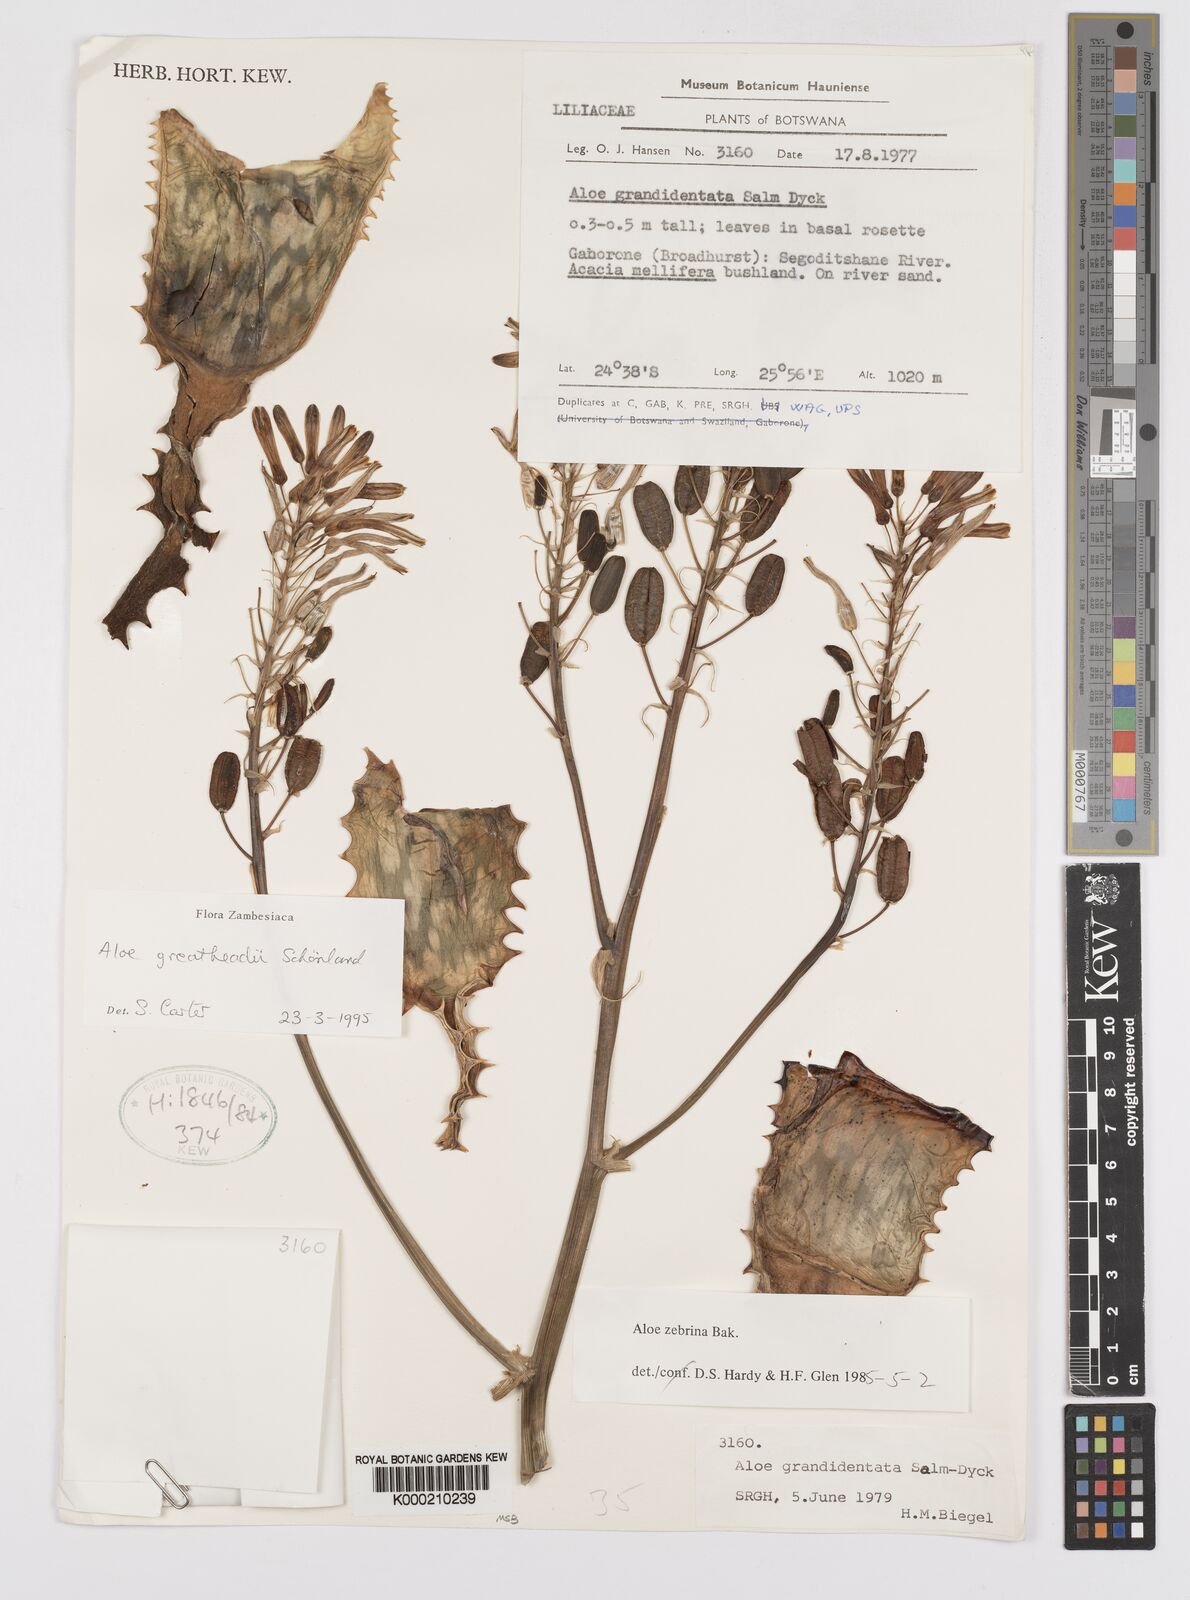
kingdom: Plantae
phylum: Tracheophyta
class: Liliopsida
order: Asparagales
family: Asphodelaceae
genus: Aloe
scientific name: Aloe greatheadii
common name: Greathead's aloe
